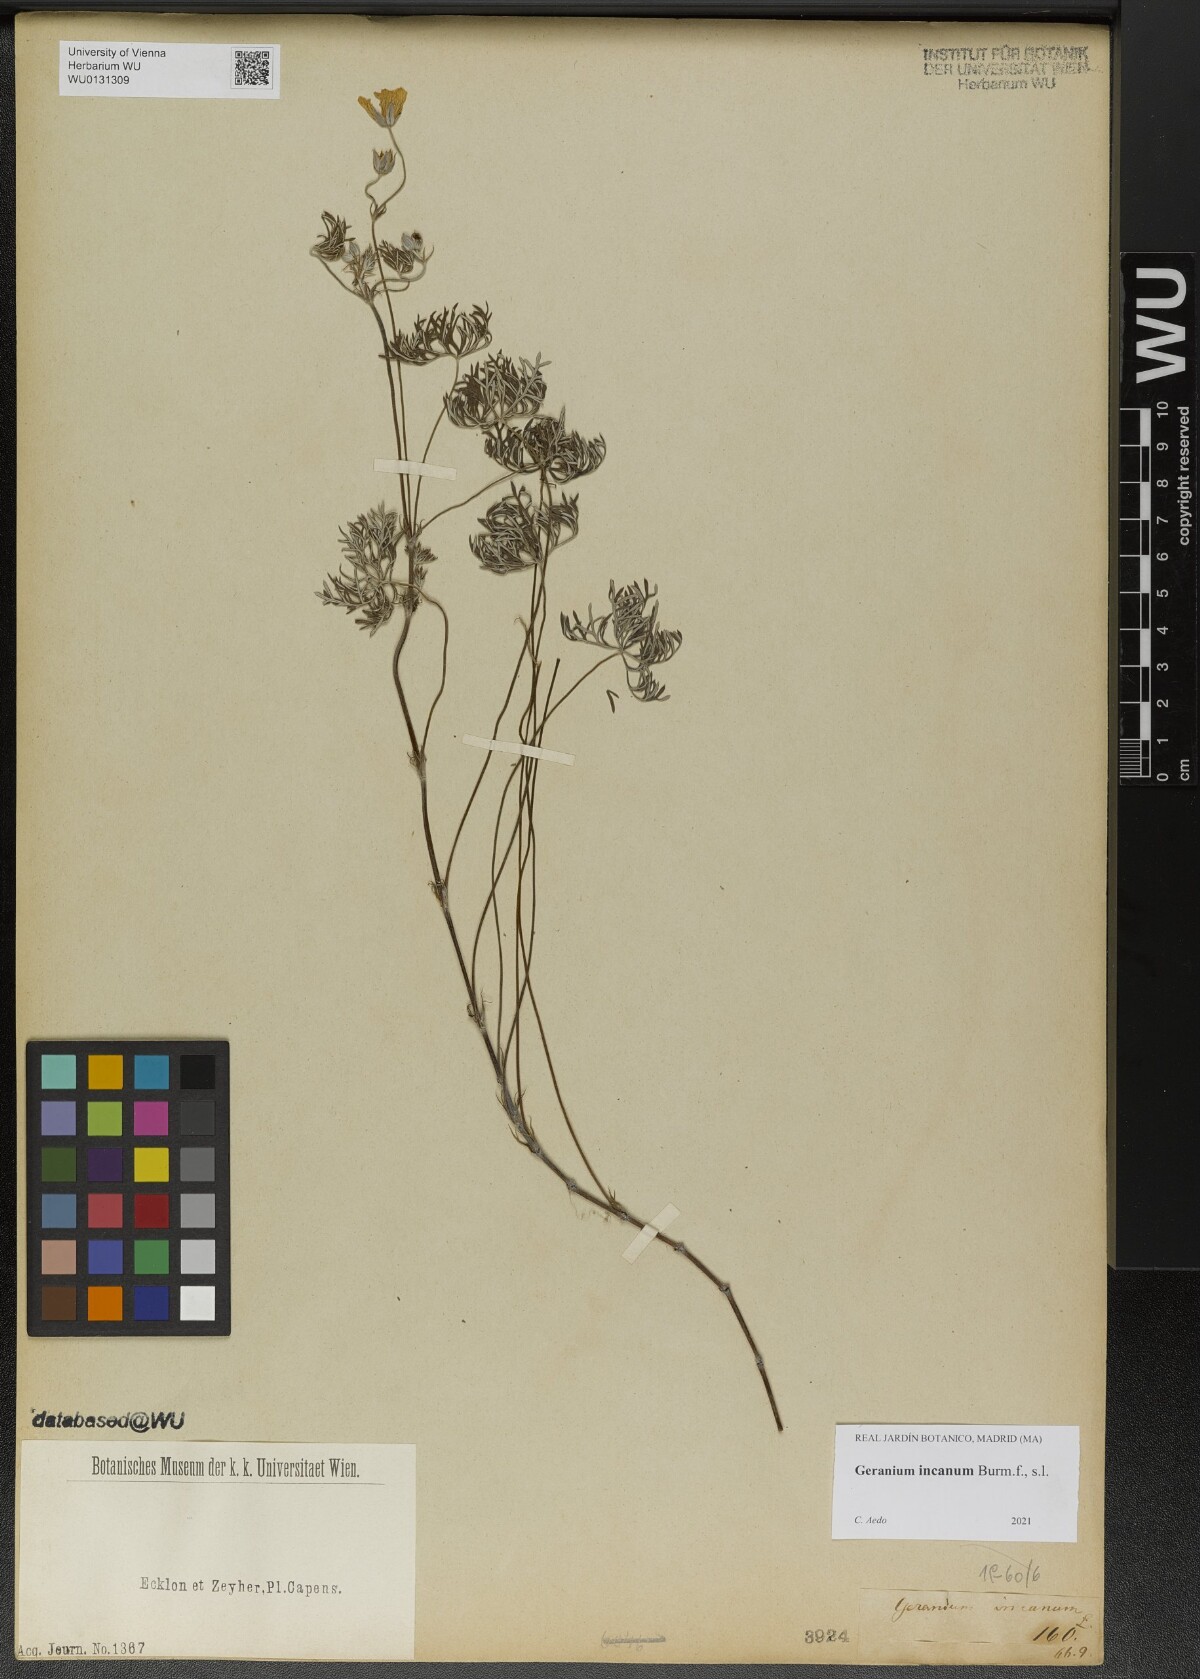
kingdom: Plantae
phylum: Tracheophyta
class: Magnoliopsida
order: Geraniales
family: Geraniaceae
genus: Geranium
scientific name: Geranium incanum
